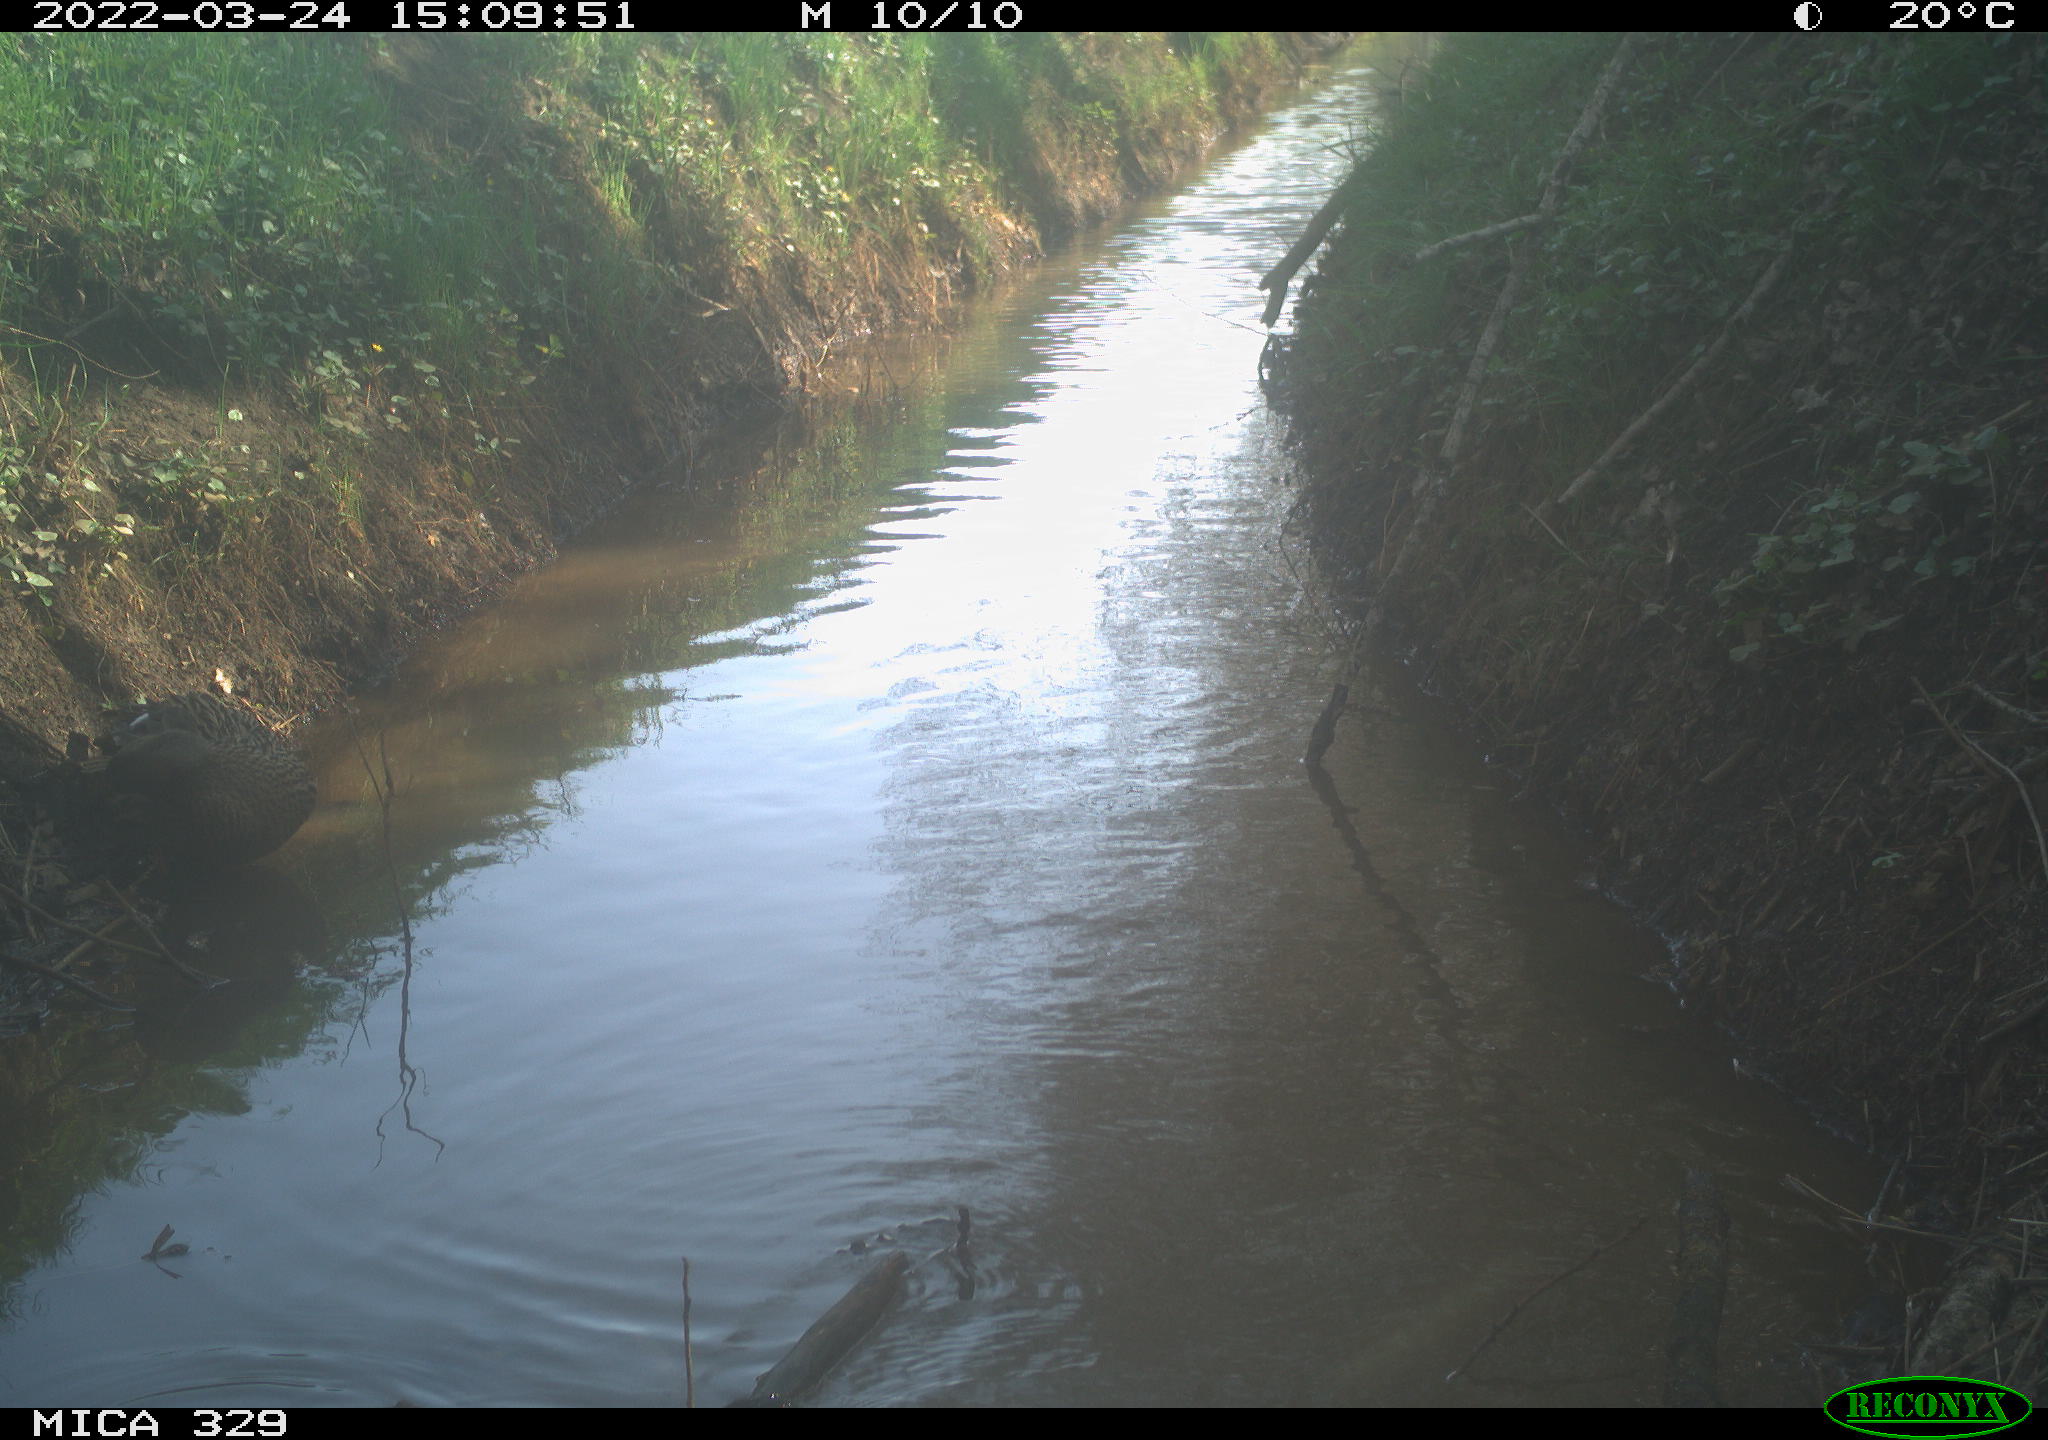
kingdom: Animalia
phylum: Chordata
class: Aves
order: Anseriformes
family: Anatidae
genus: Anas
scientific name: Anas platyrhynchos
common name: Mallard
